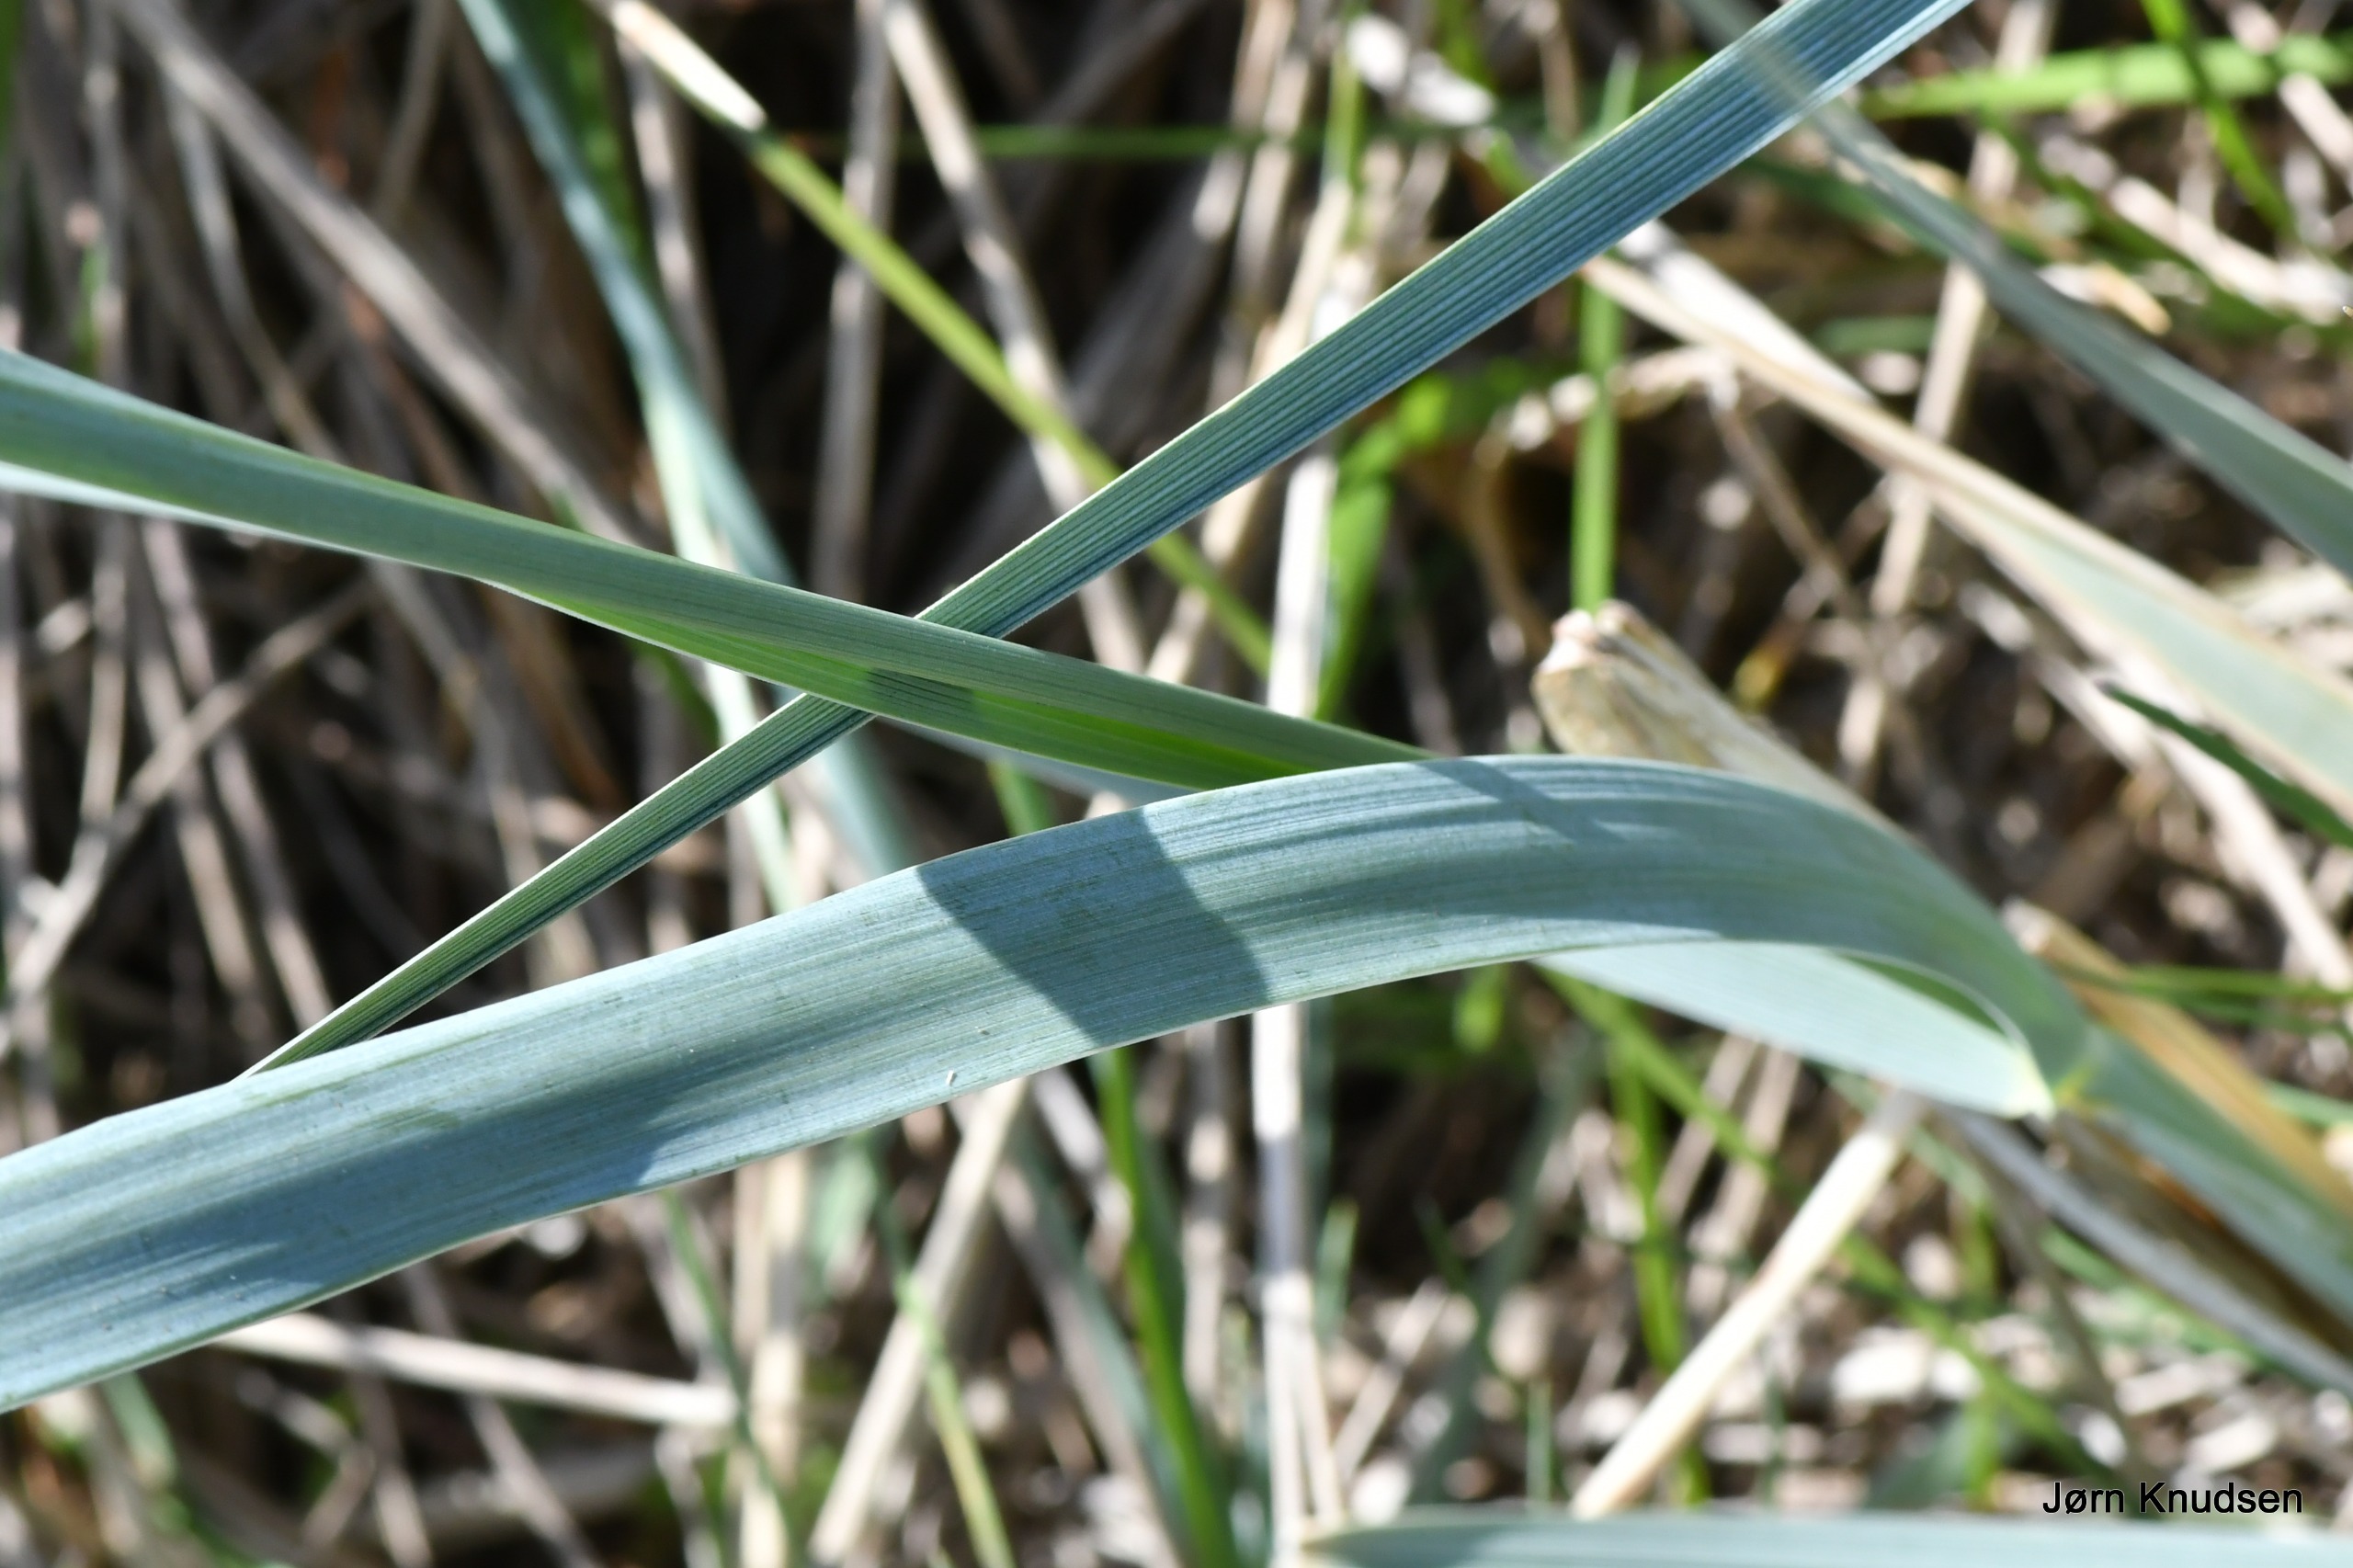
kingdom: Plantae
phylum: Tracheophyta
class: Liliopsida
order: Poales
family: Poaceae
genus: Leymus
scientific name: Leymus arenarius
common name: Marehalm
